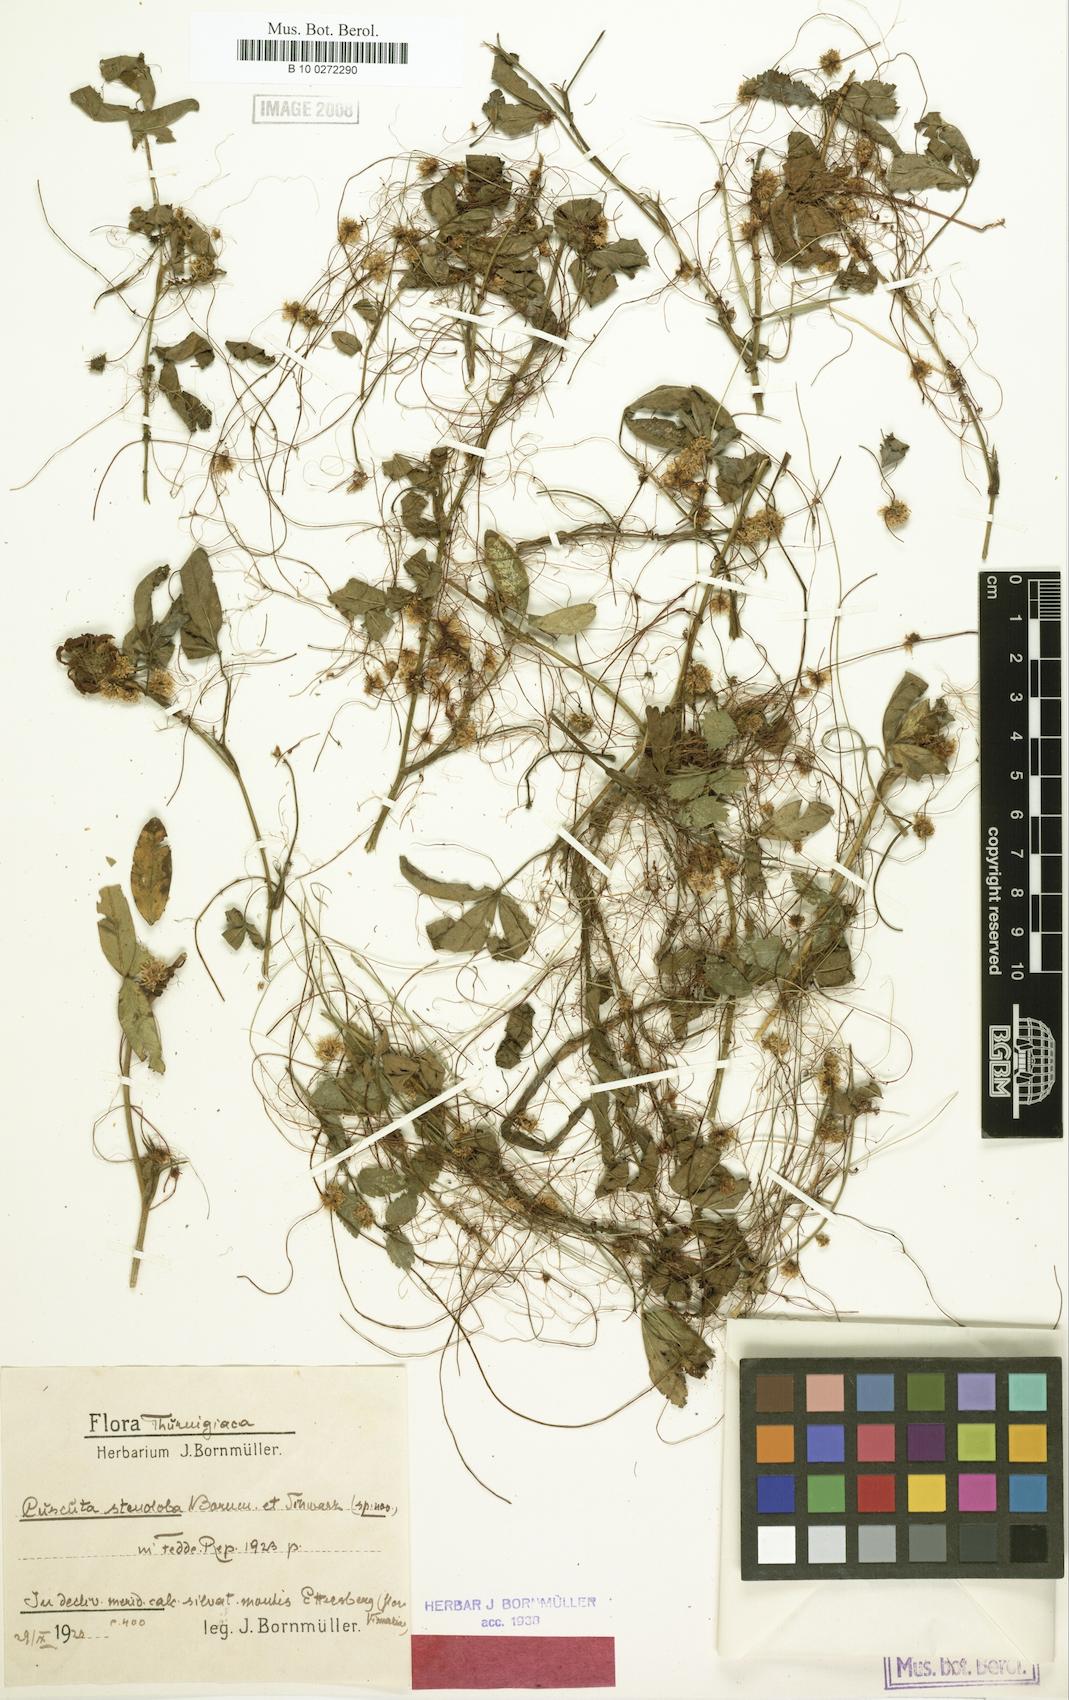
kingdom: Plantae
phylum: Tracheophyta
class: Magnoliopsida
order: Solanales
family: Convolvulaceae
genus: Cuscuta
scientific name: Cuscuta epithymum
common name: Clover dodder
